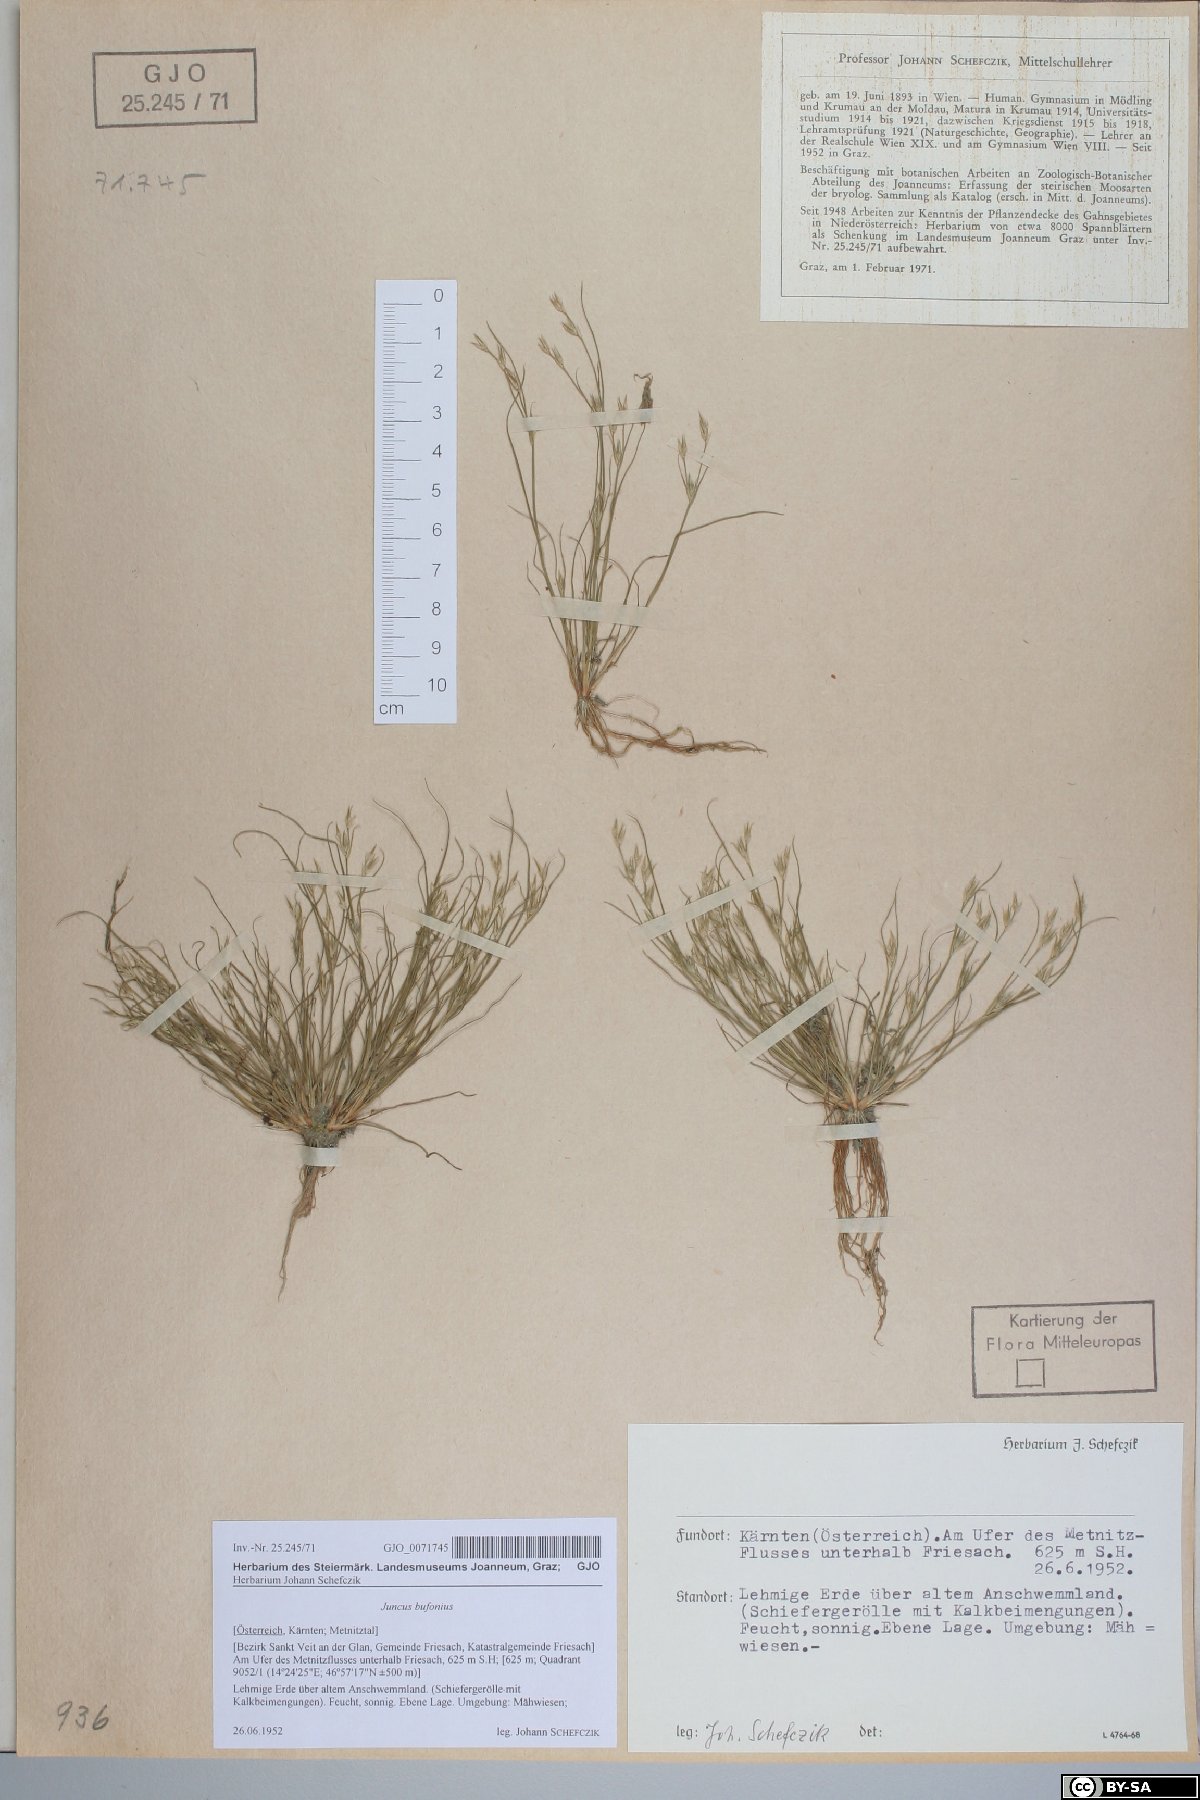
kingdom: Plantae
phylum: Tracheophyta
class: Liliopsida
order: Poales
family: Juncaceae
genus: Juncus
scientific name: Juncus bufonius
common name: Toad rush
